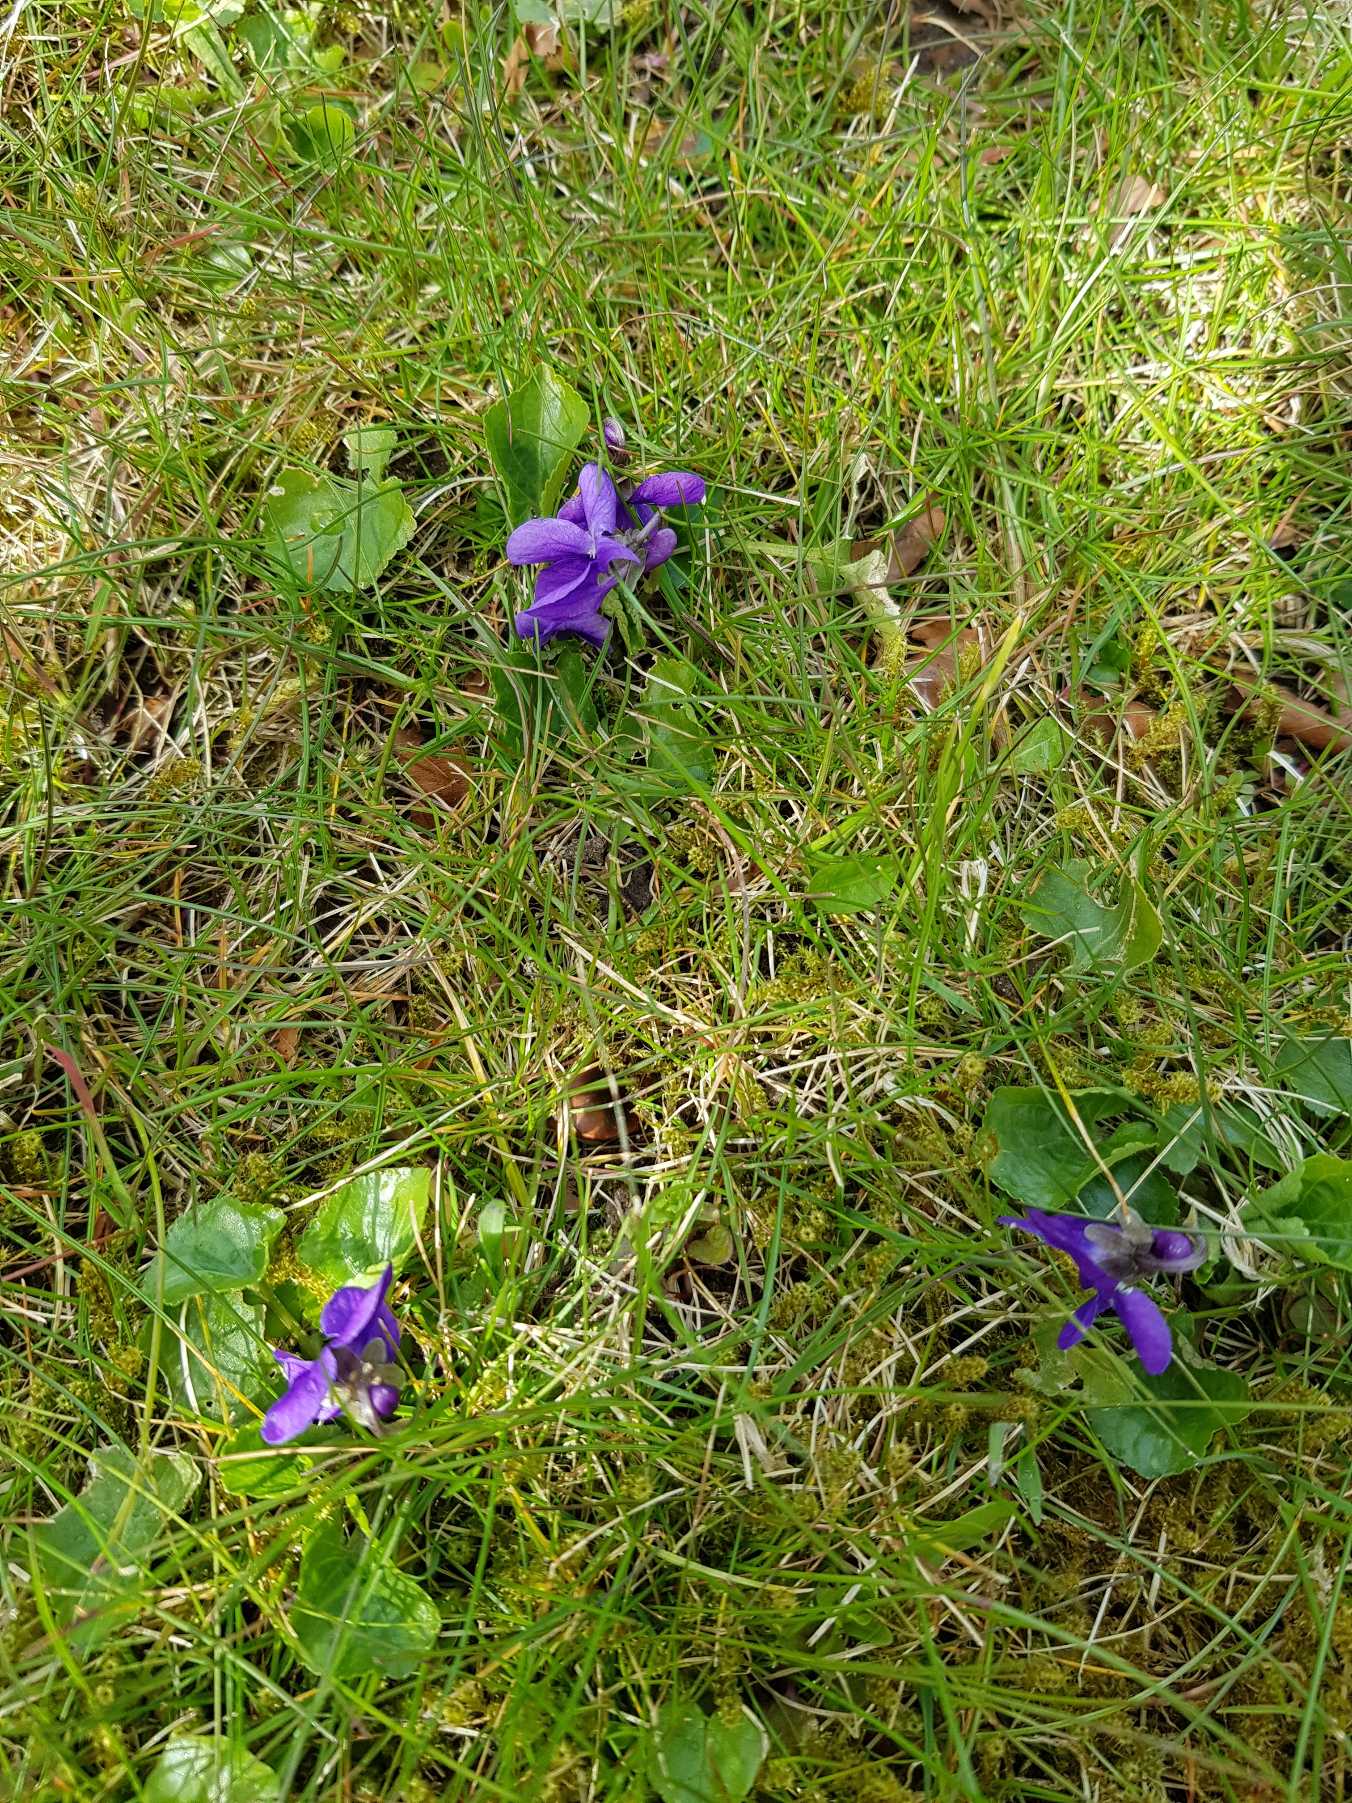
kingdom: Plantae
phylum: Tracheophyta
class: Magnoliopsida
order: Malpighiales
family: Violaceae
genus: Viola
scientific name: Viola odorata
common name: Marts-viol
